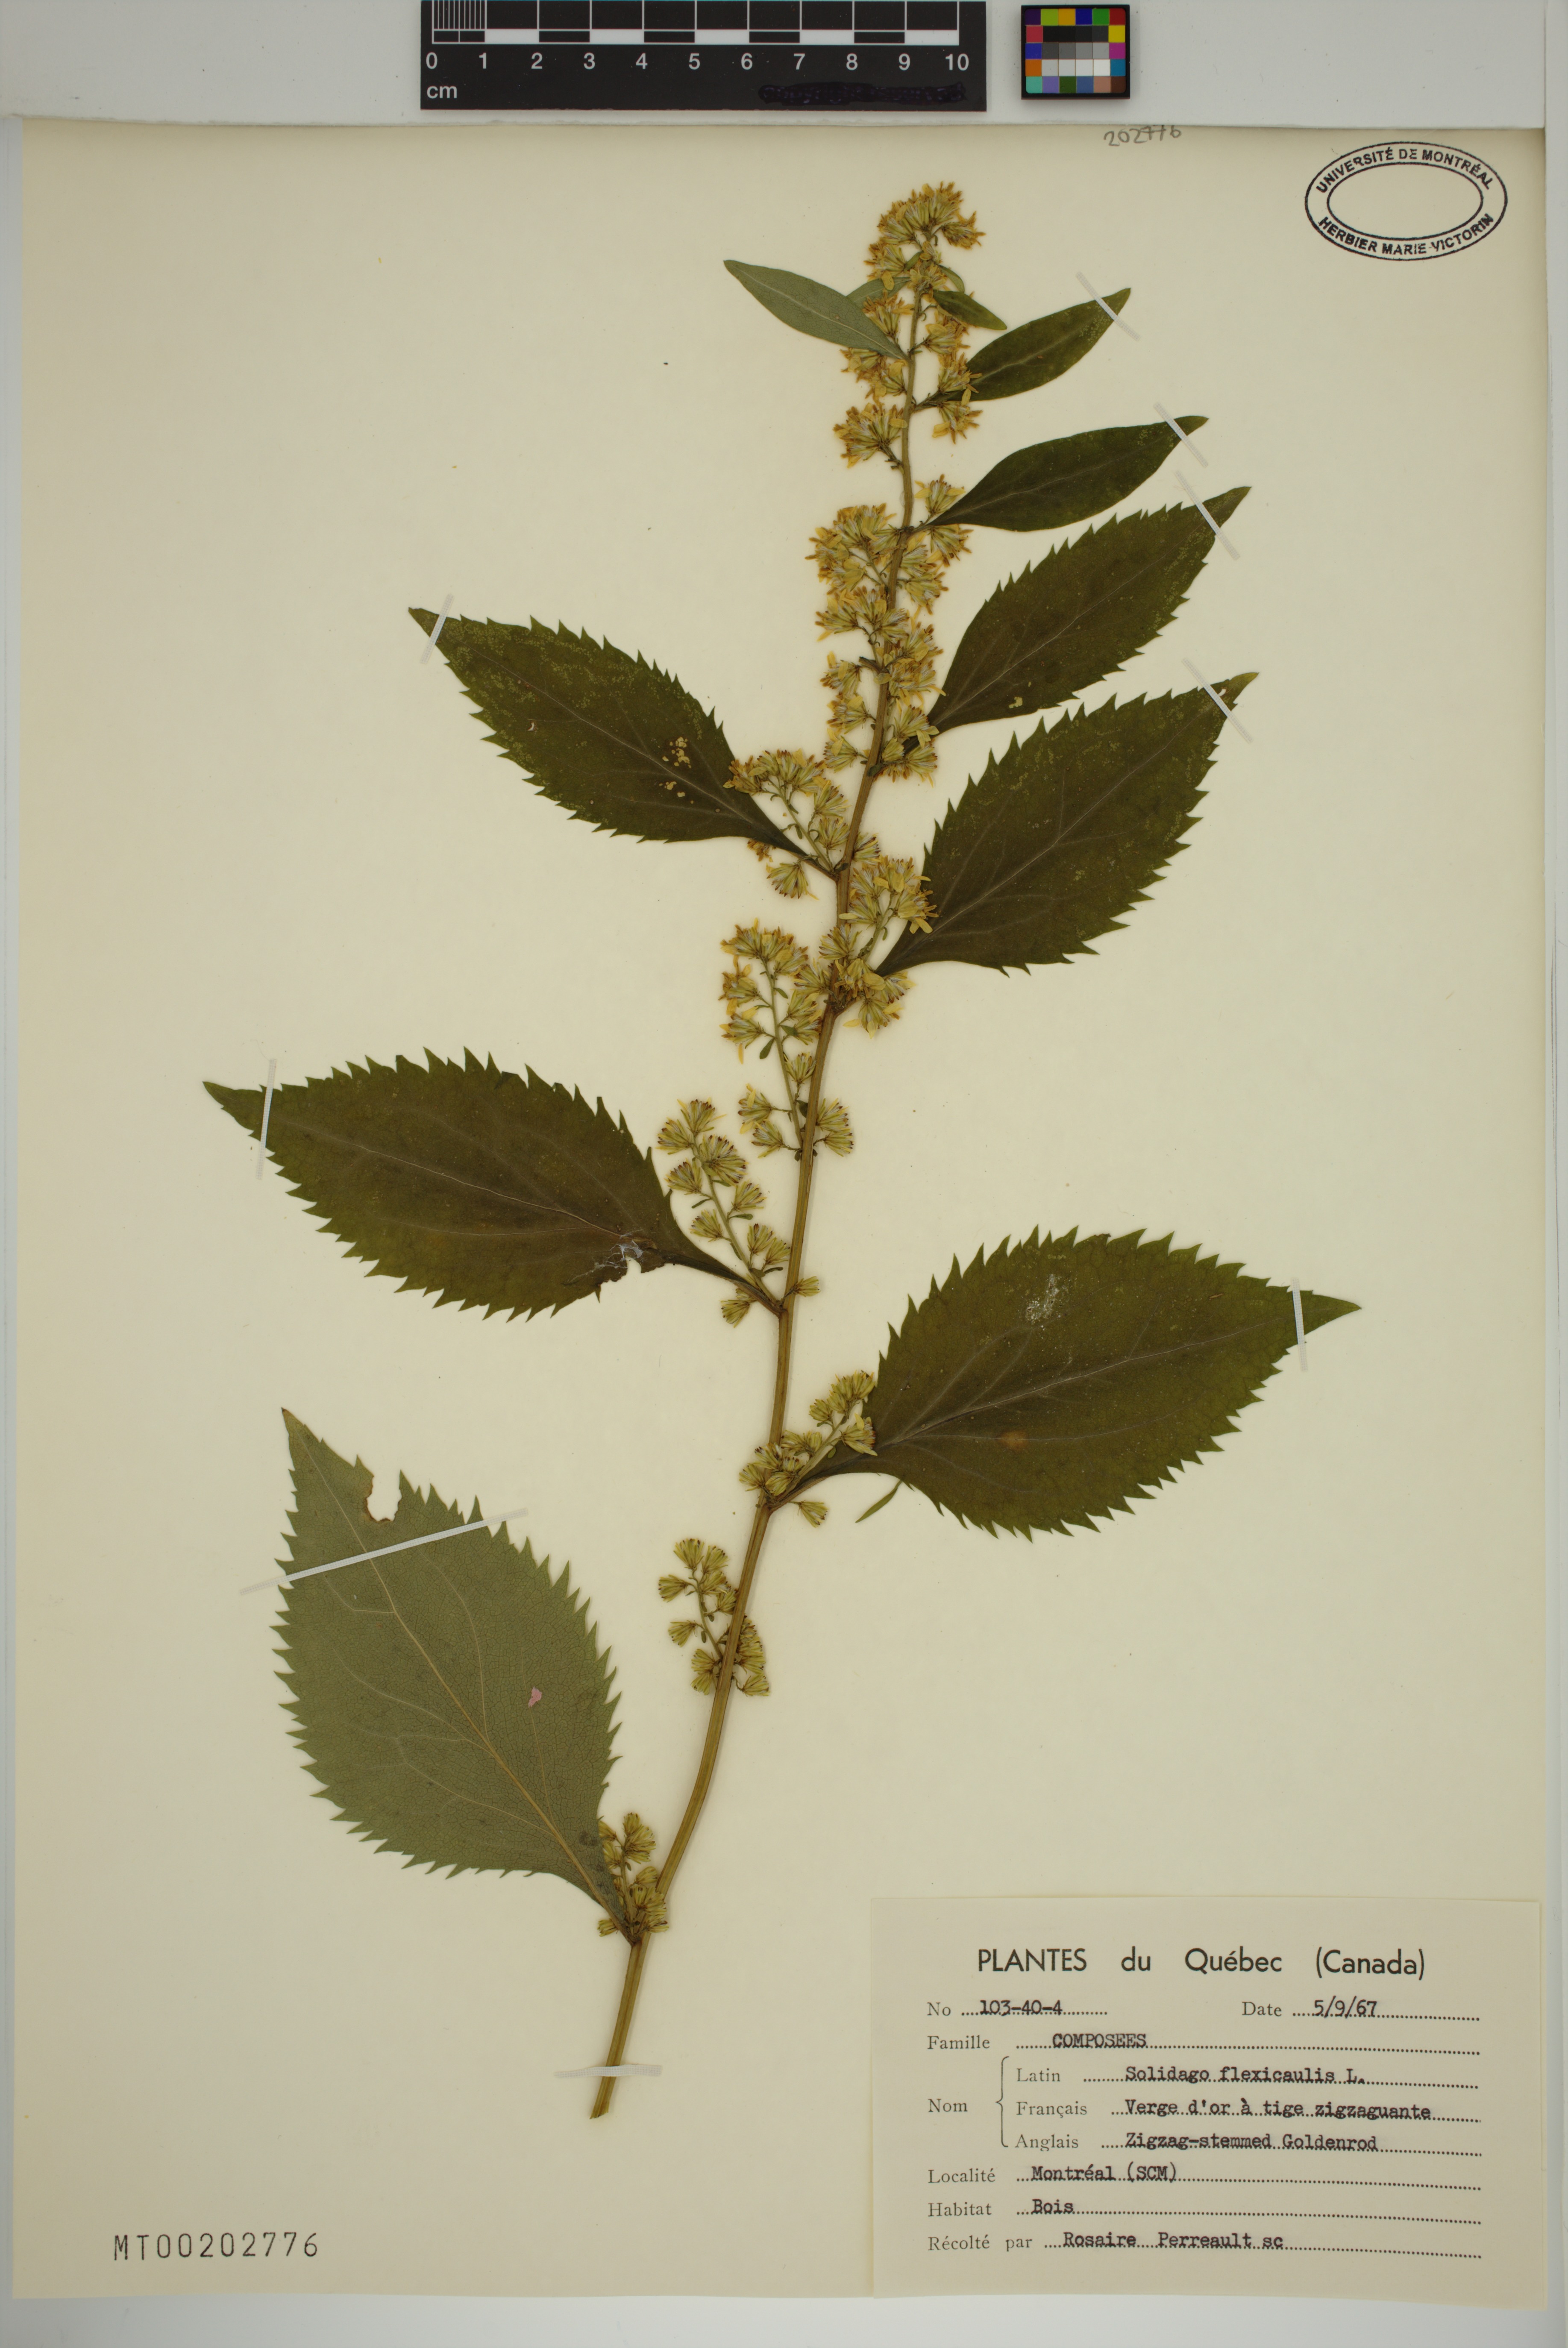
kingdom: Plantae
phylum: Tracheophyta
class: Magnoliopsida
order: Asterales
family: Asteraceae
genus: Solidago
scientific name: Solidago flexicaulis
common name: Zig-zag goldenrod
